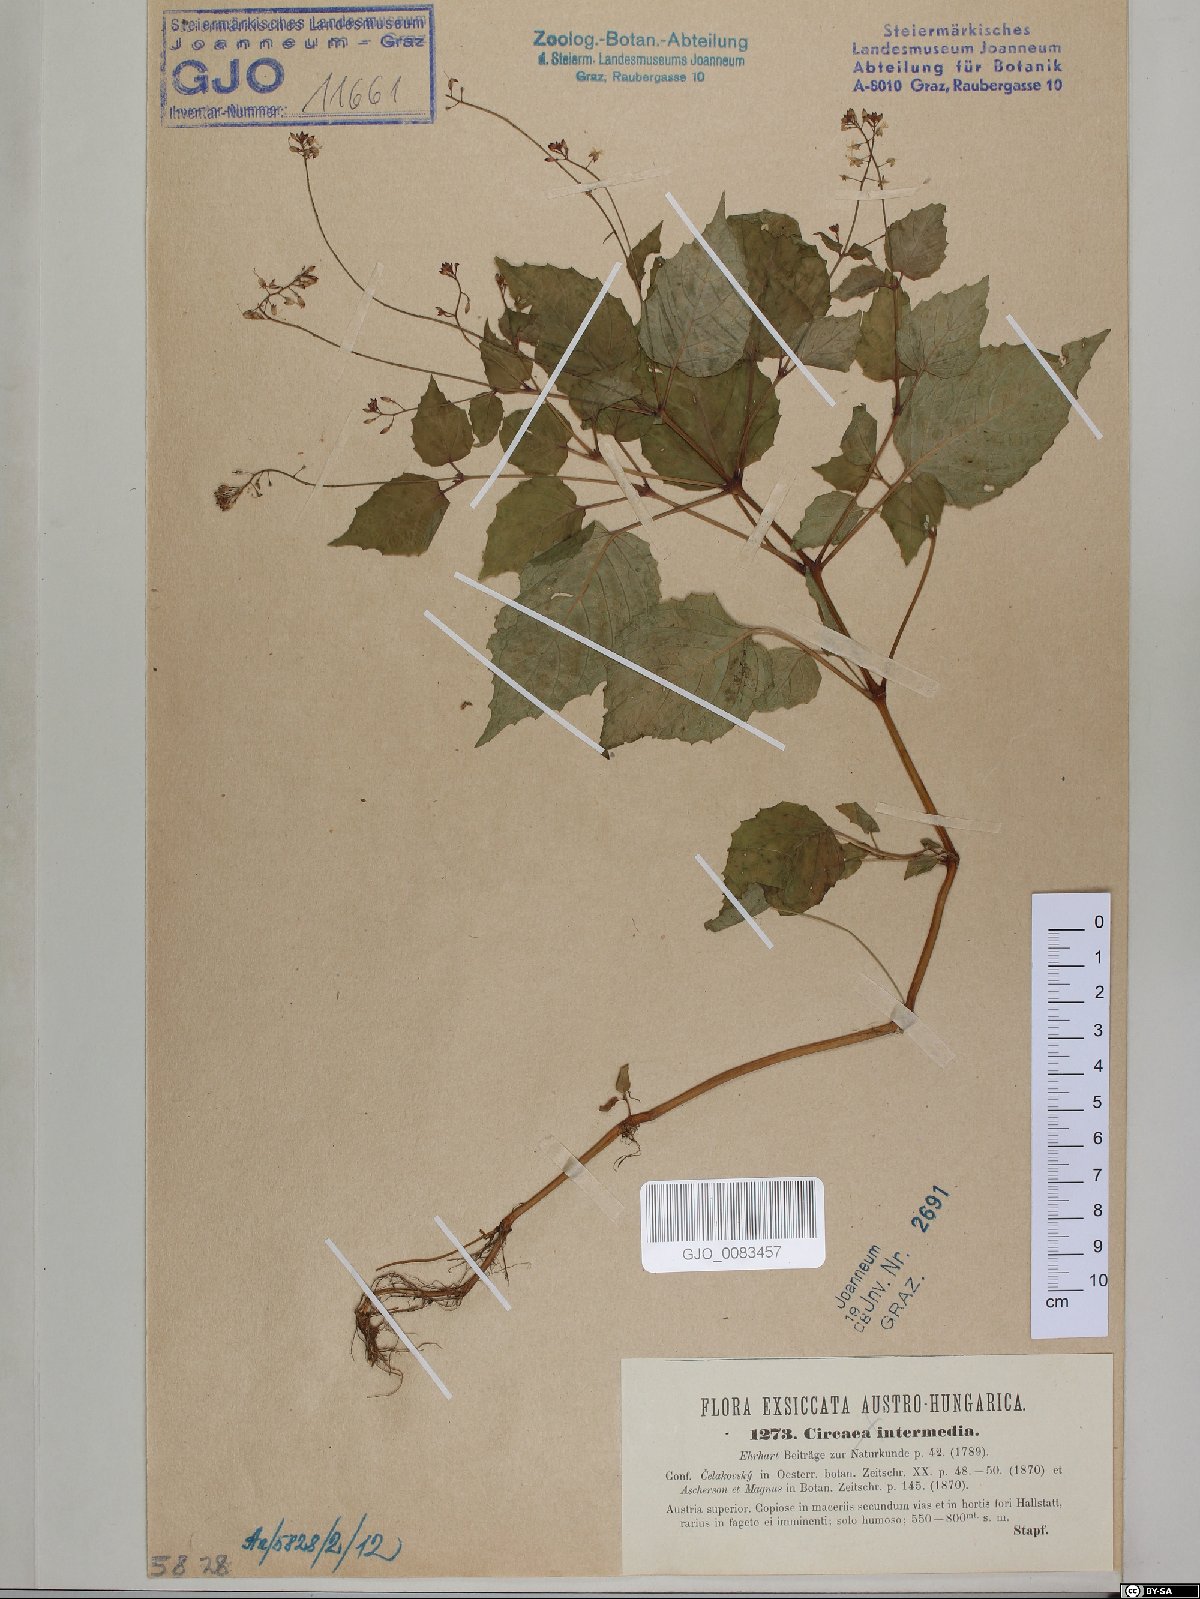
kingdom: Plantae
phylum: Tracheophyta
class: Magnoliopsida
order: Myrtales
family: Onagraceae
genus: Circaea
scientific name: Circaea intermedia
